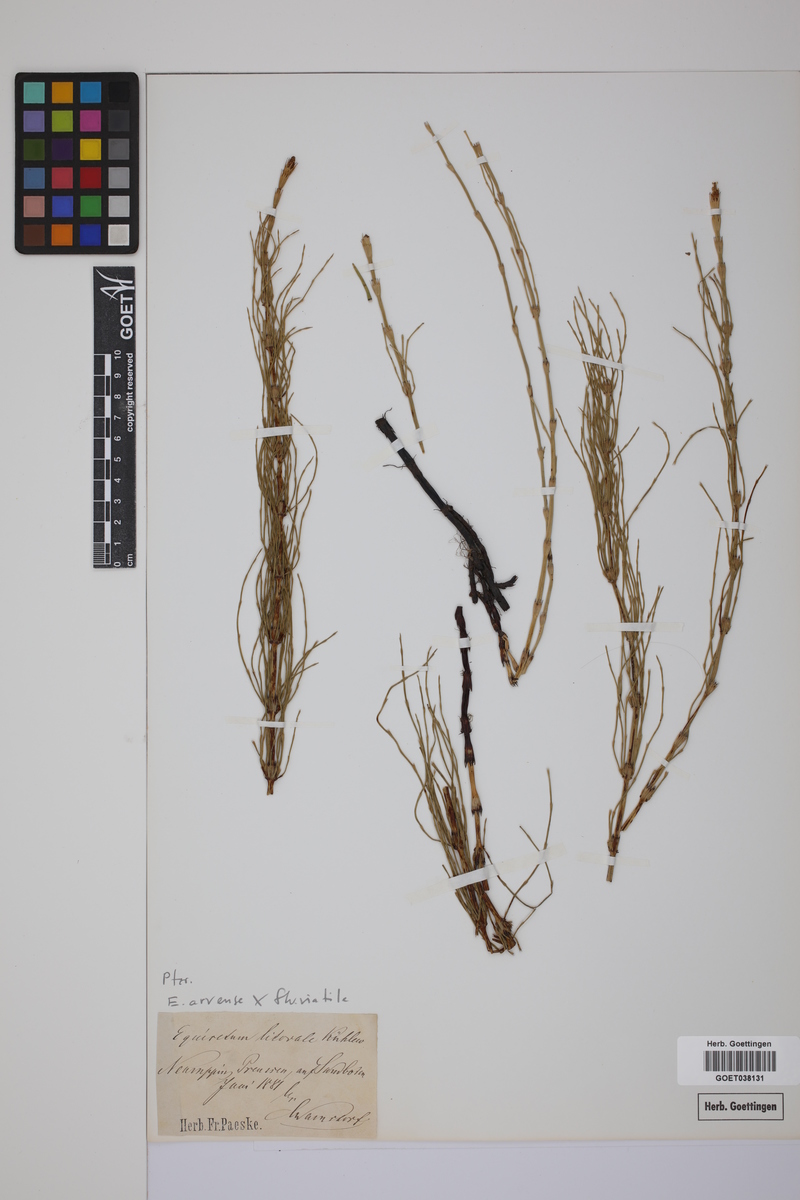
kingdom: Plantae
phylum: Tracheophyta
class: Polypodiopsida
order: Equisetales
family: Equisetaceae
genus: Equisetum
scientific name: Equisetum litorale
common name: Littoral horsetail
